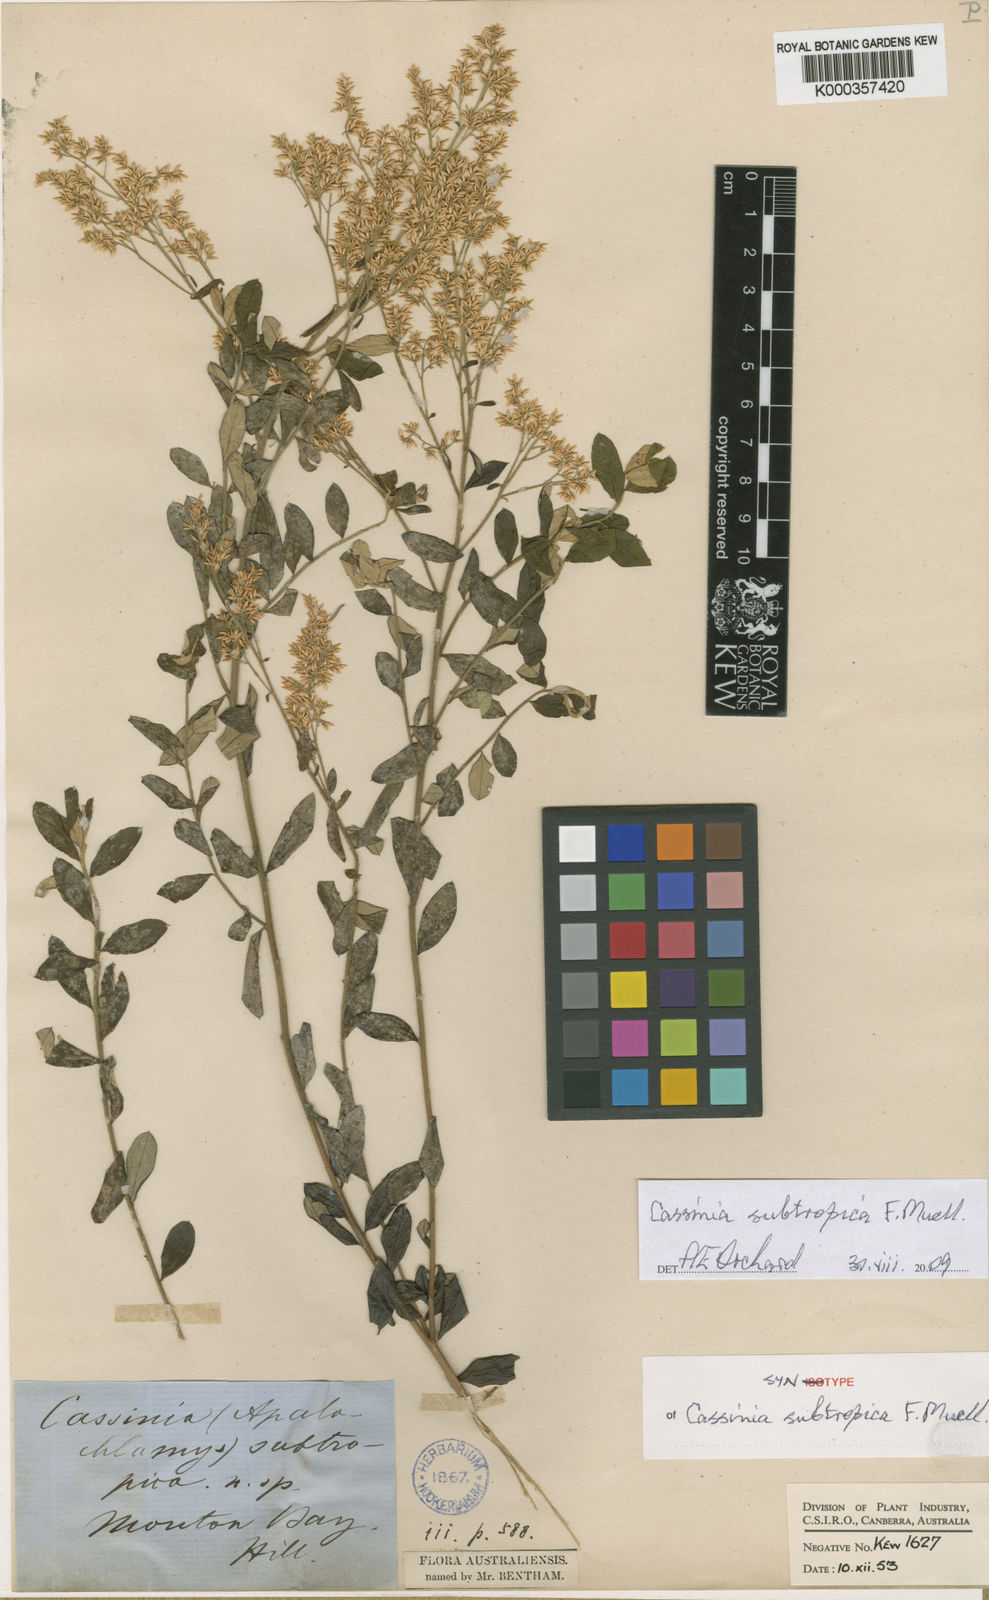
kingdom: Plantae
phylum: Tracheophyta
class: Magnoliopsida
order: Asterales
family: Asteraceae
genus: Cassinia
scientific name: Cassinia subtropica
